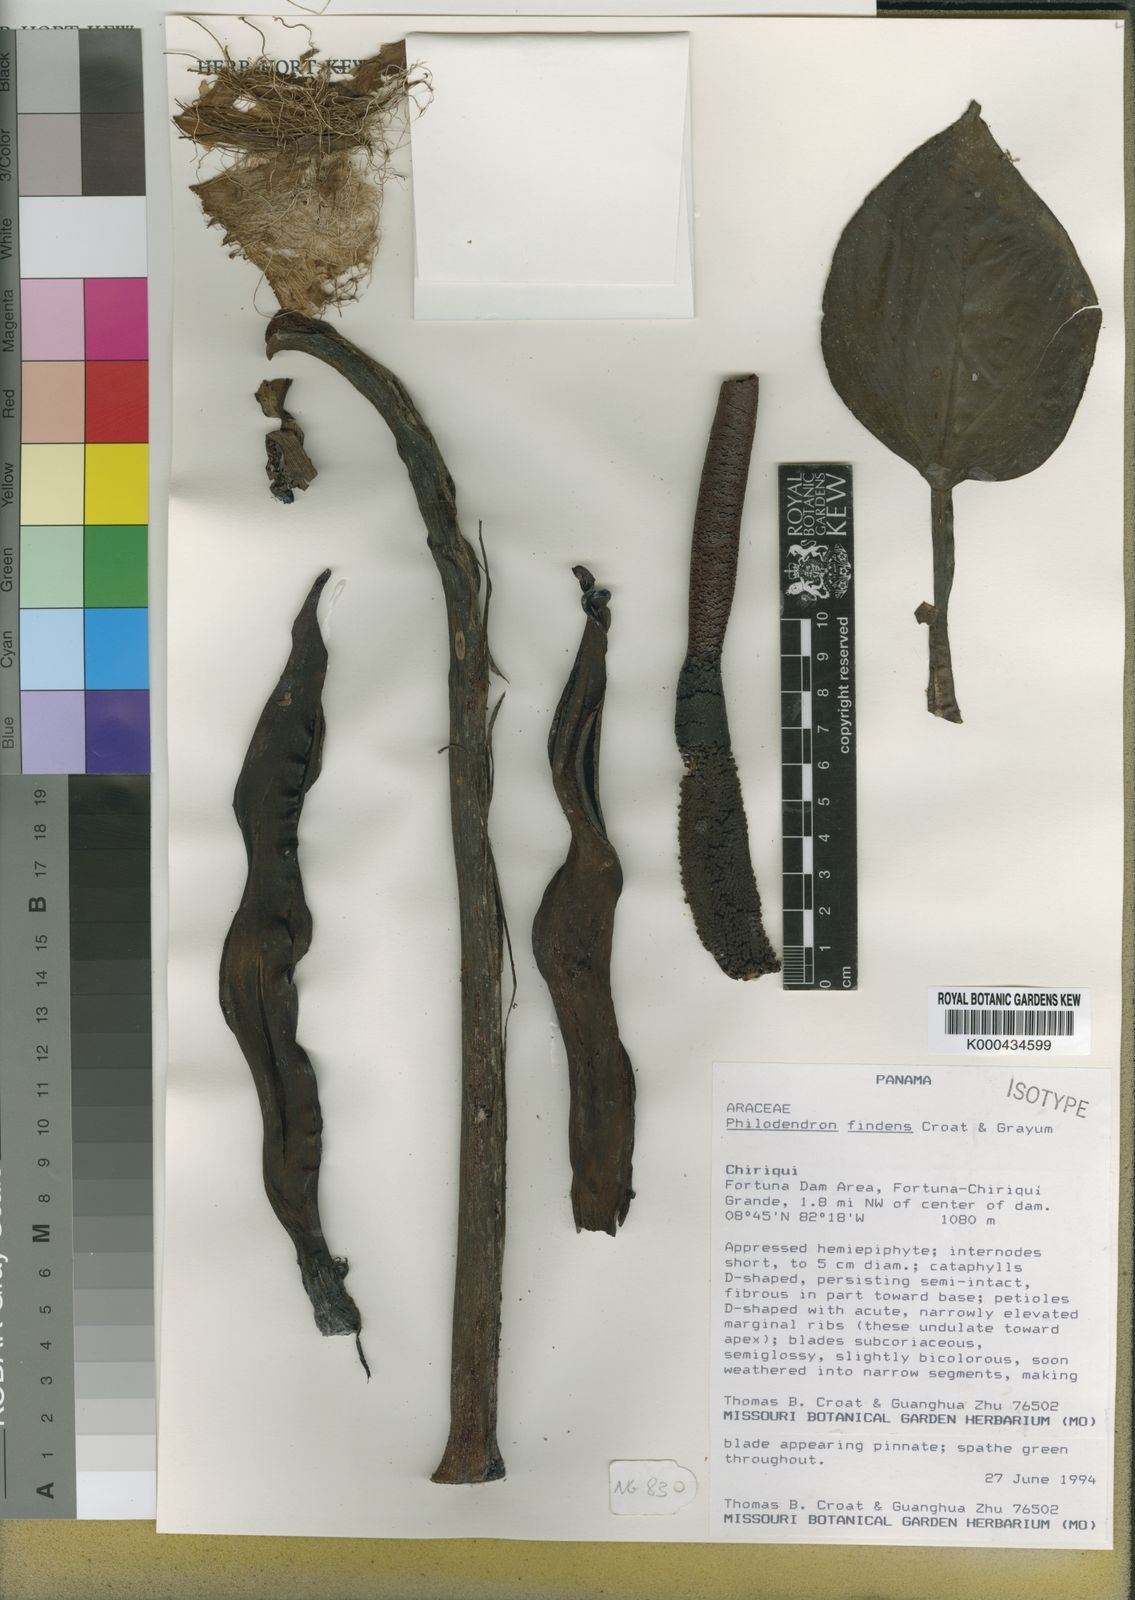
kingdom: Plantae
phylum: Tracheophyta
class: Liliopsida
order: Alismatales
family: Araceae
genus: Philodendron
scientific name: Philodendron findens
